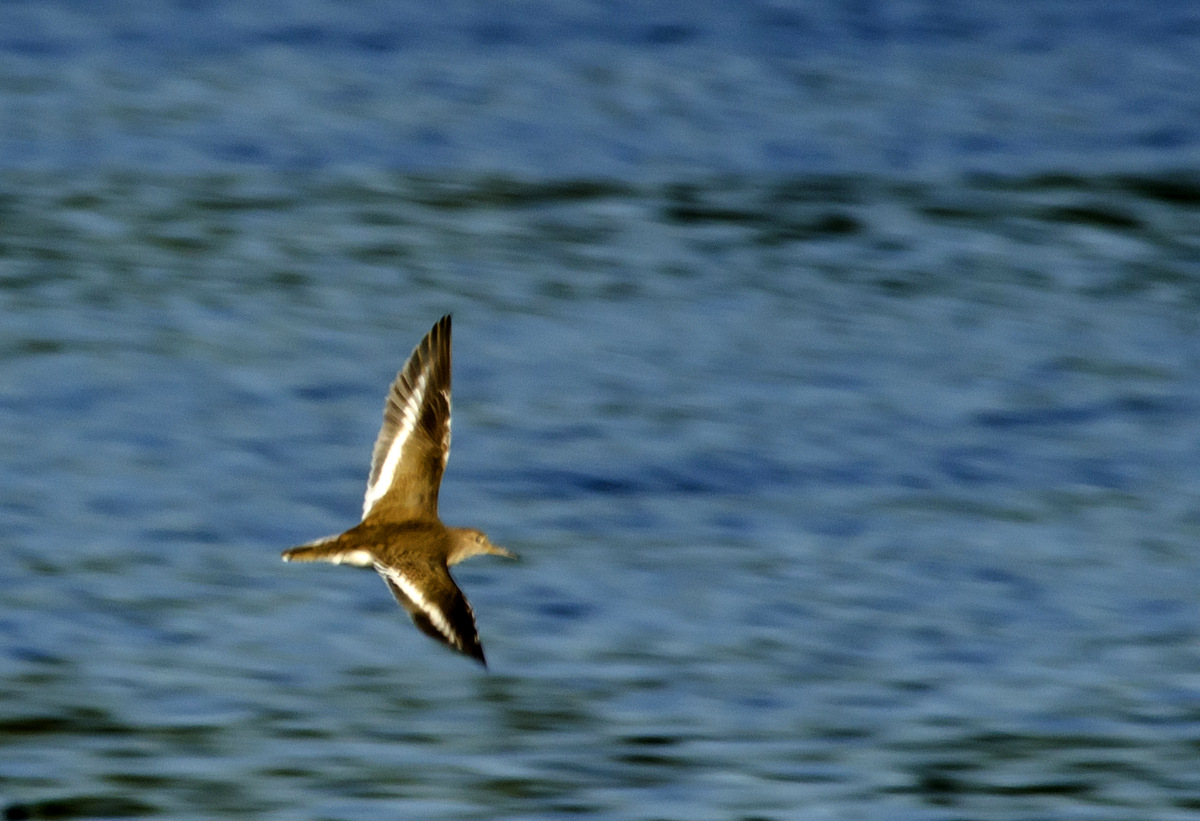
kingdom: Animalia
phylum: Chordata
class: Aves
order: Charadriiformes
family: Scolopacidae
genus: Actitis
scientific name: Actitis hypoleucos
